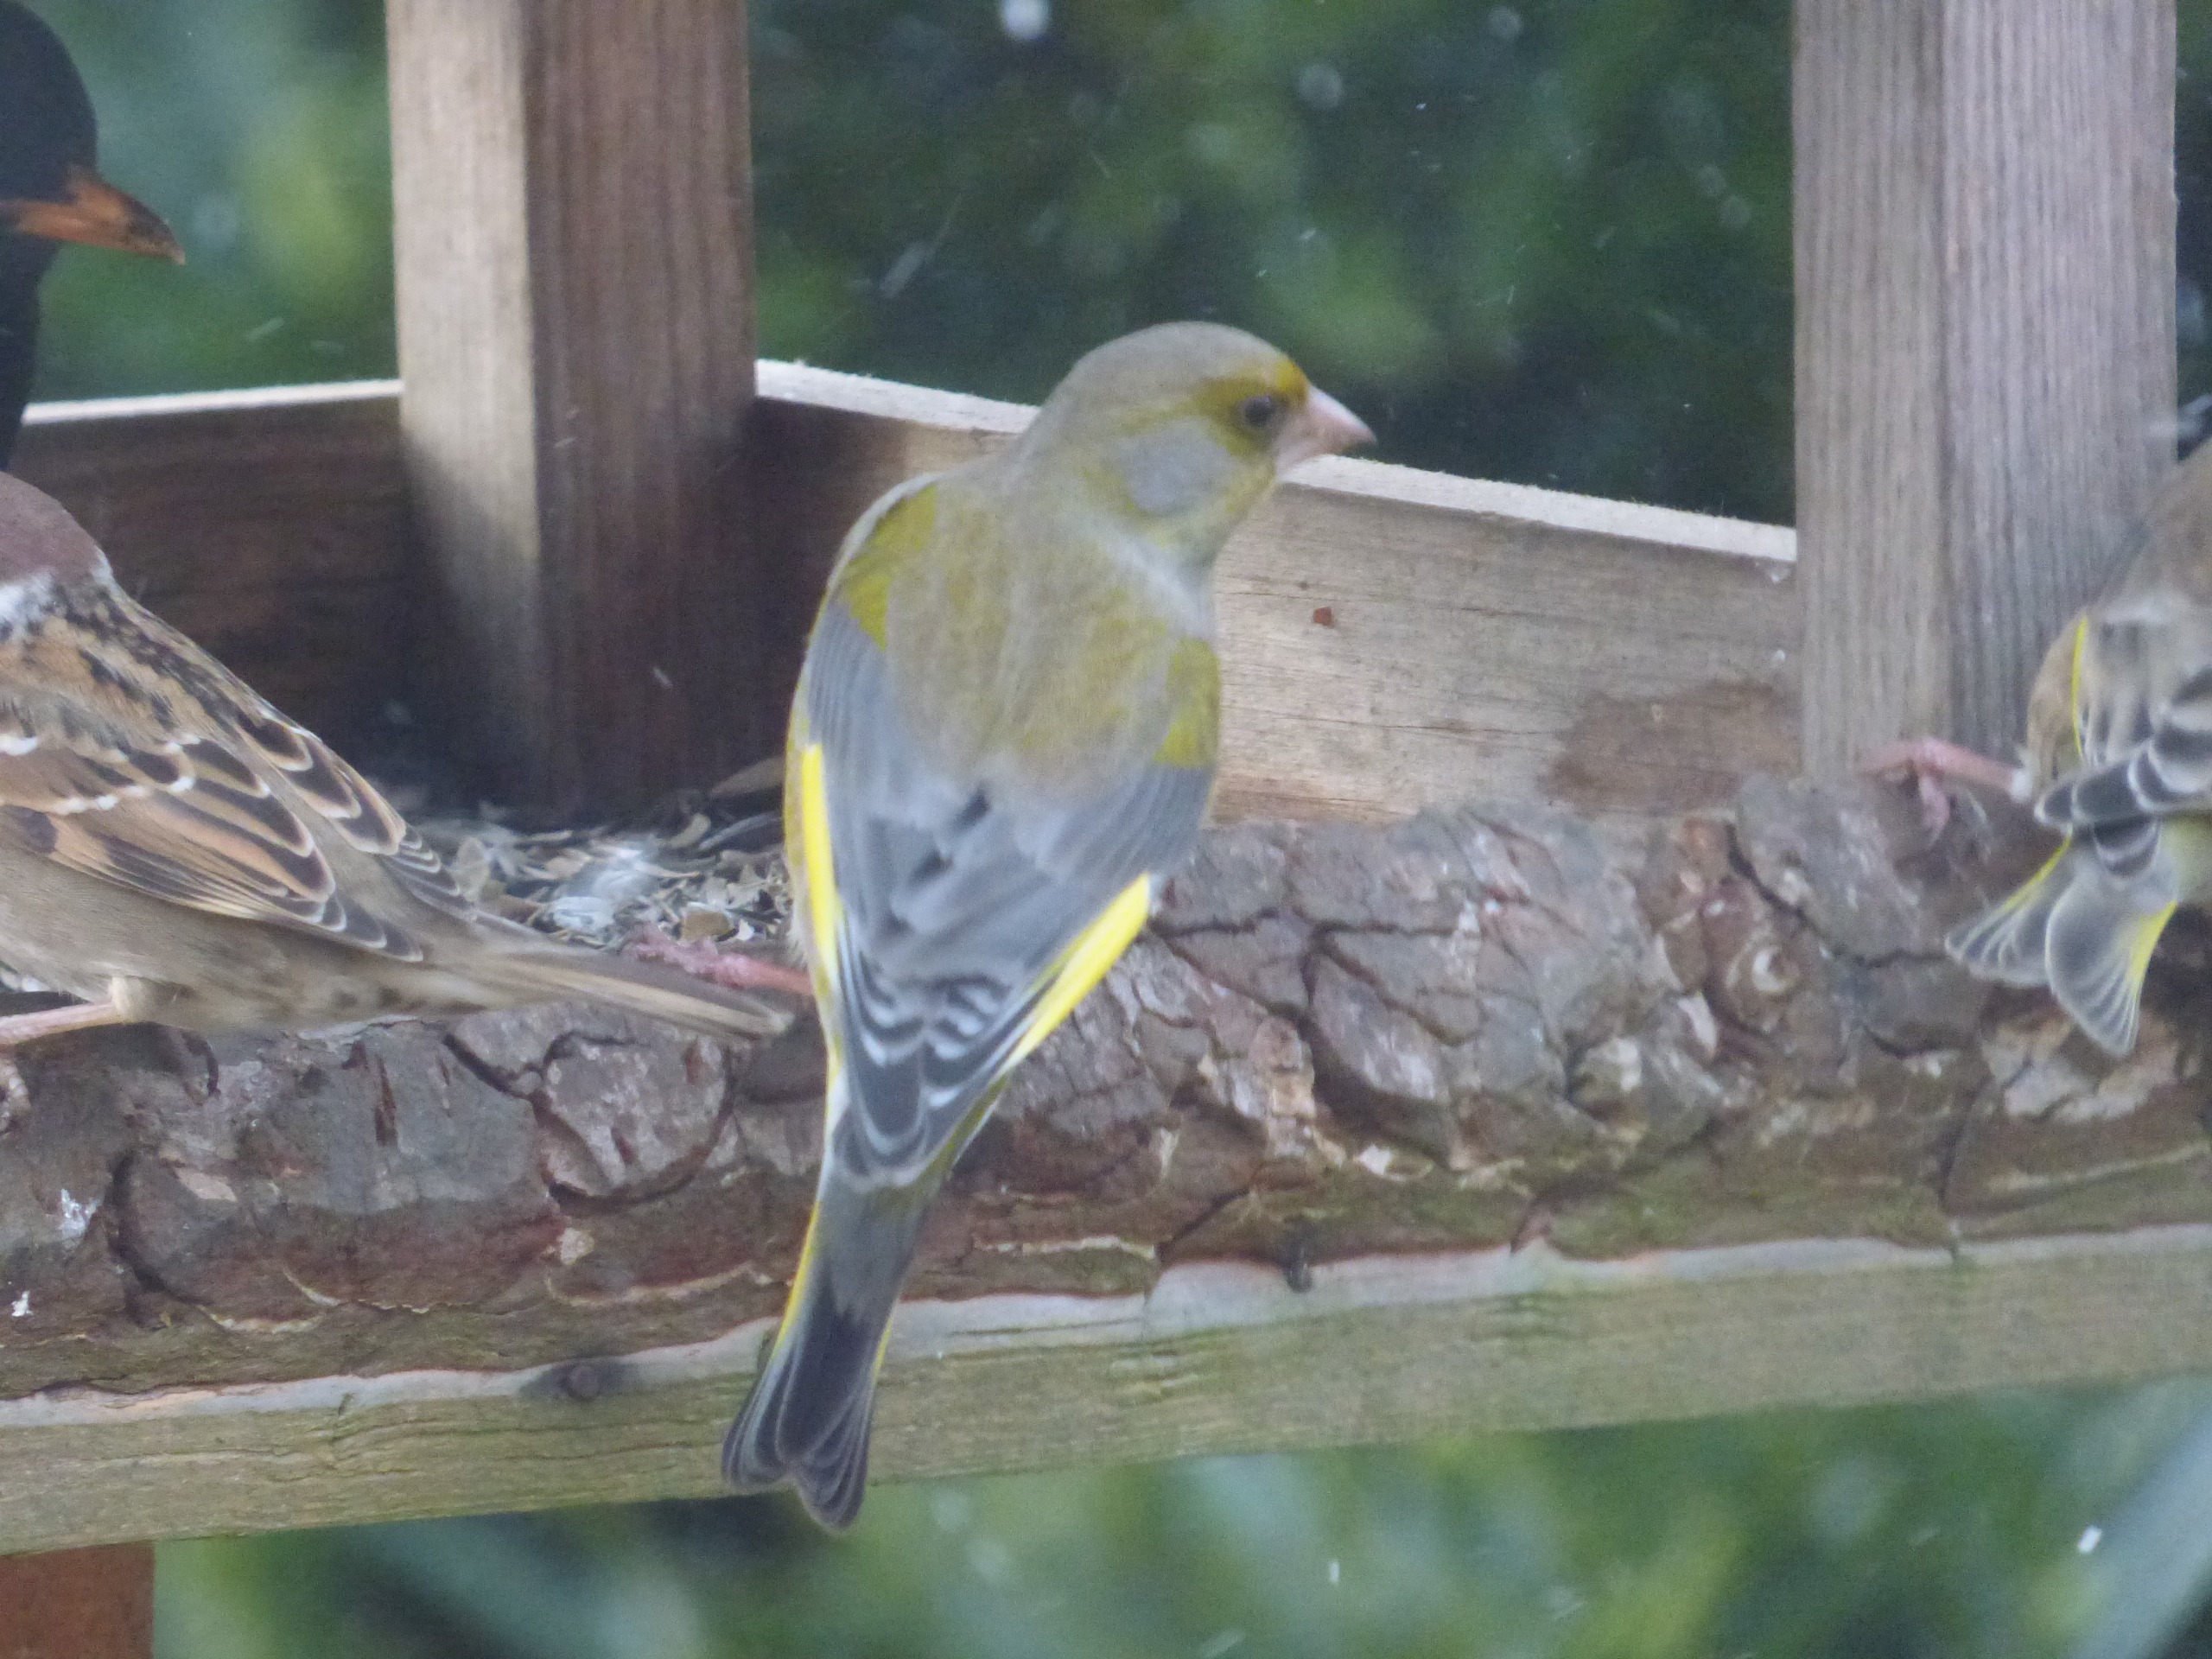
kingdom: Plantae
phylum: Tracheophyta
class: Liliopsida
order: Poales
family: Poaceae
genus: Chloris
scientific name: Chloris chloris
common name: Grønirisk
